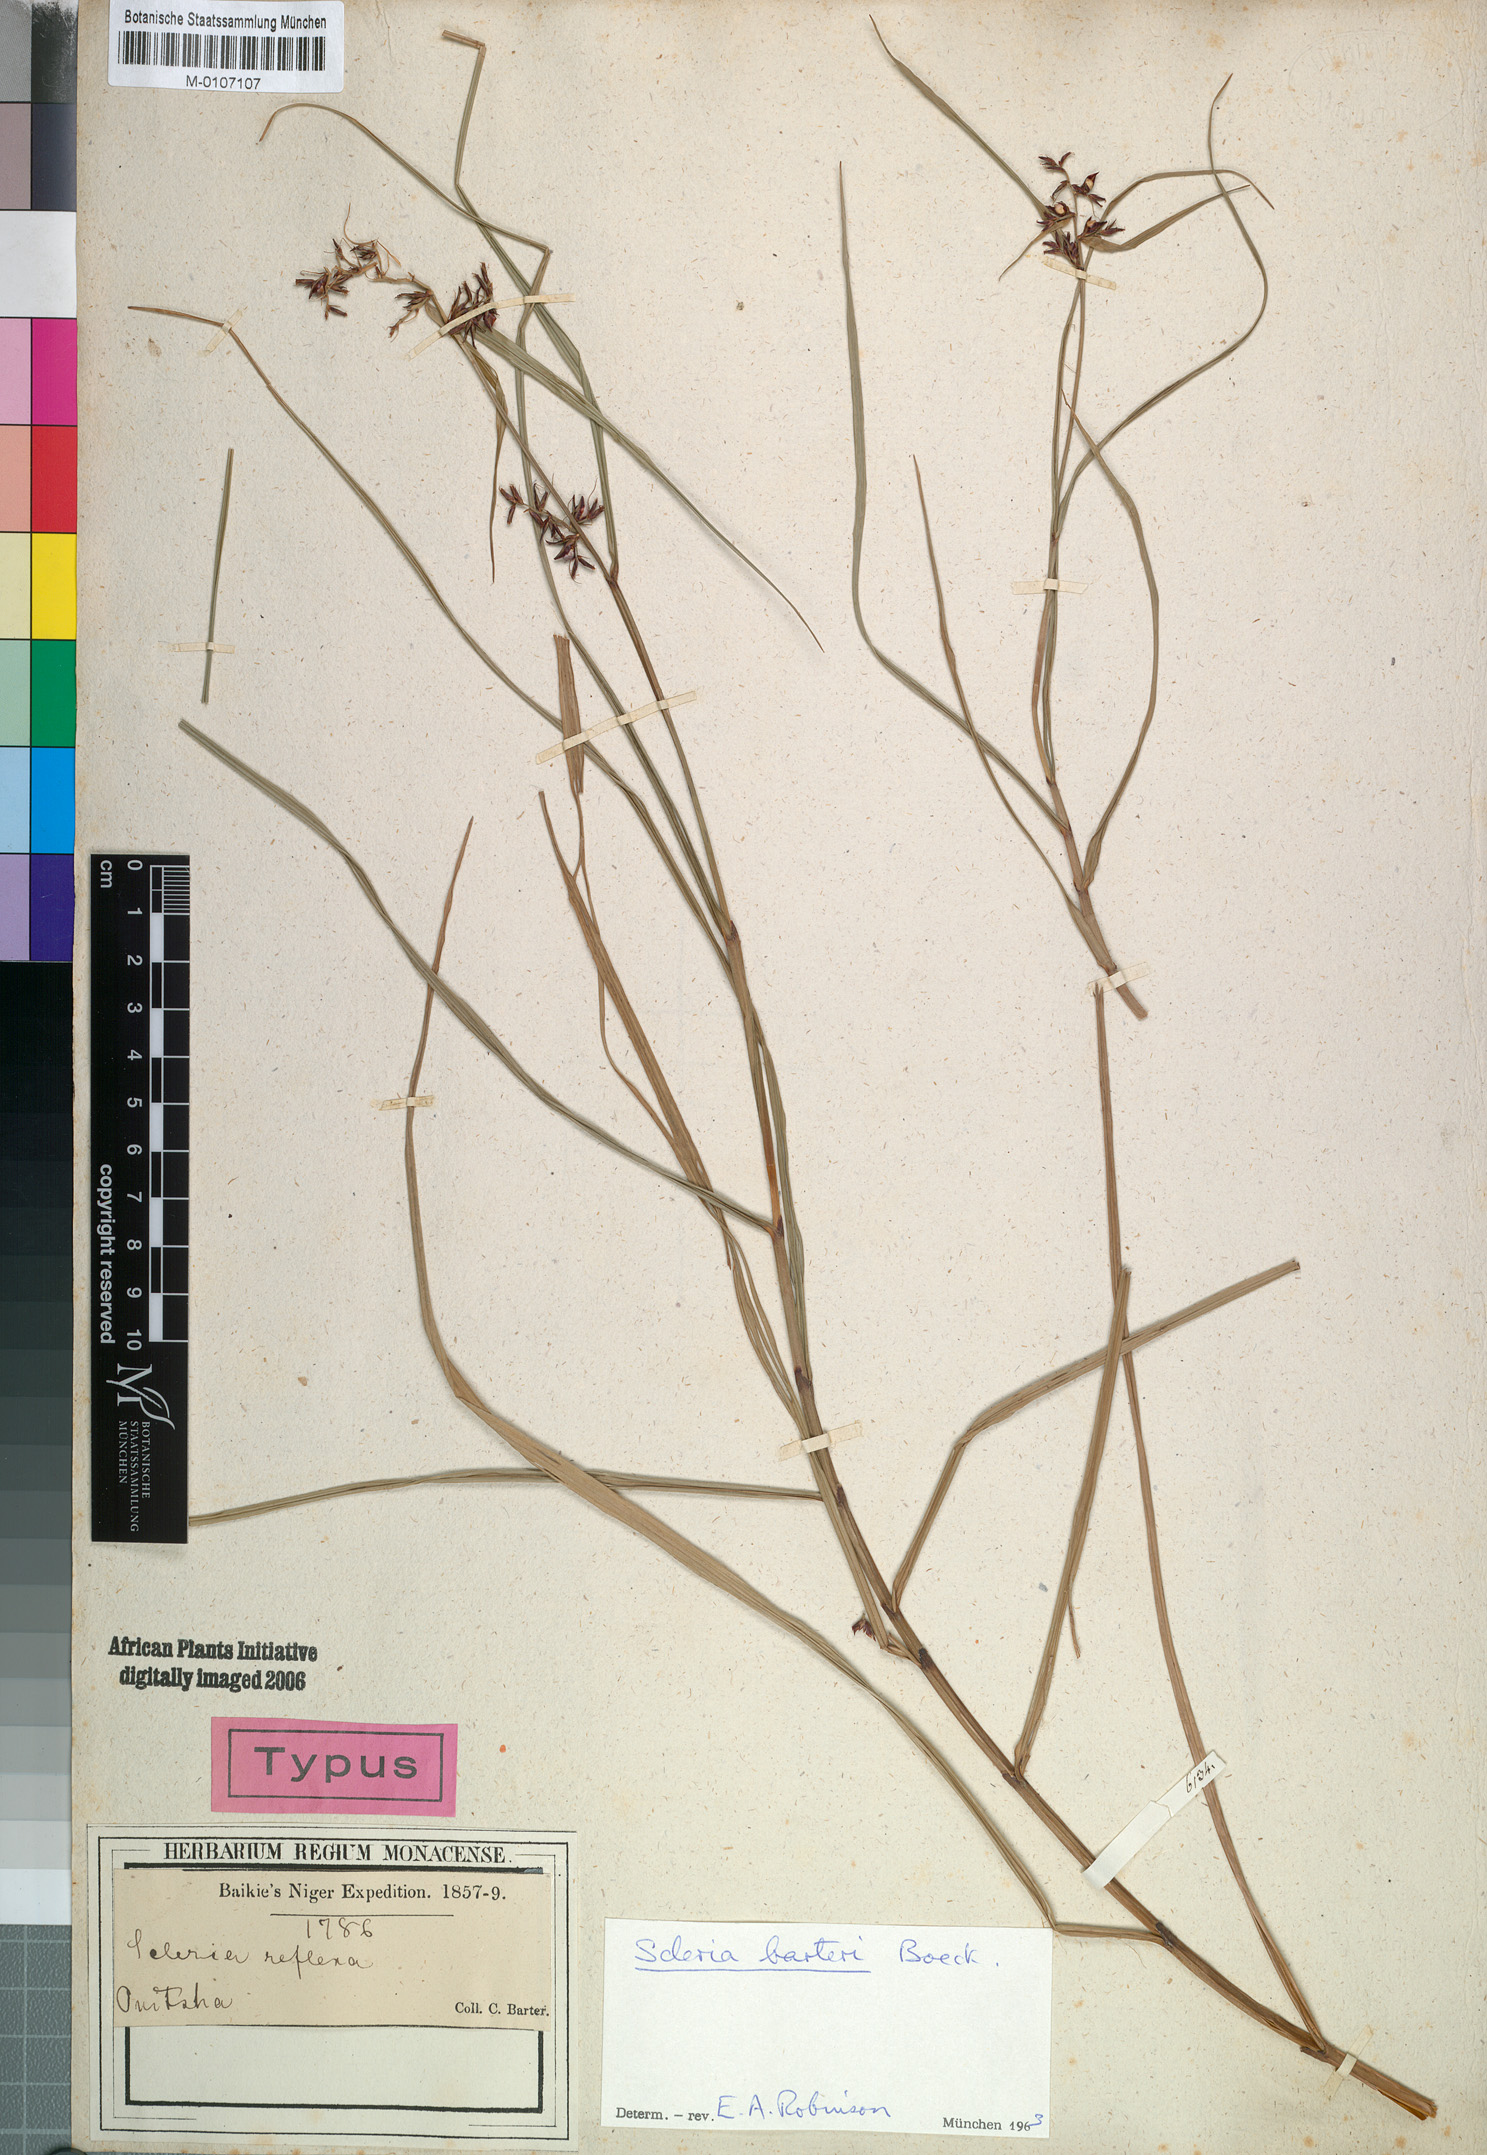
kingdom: Plantae
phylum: Tracheophyta
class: Liliopsida
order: Poales
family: Cyperaceae
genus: Scleria
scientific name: Scleria boivinii
